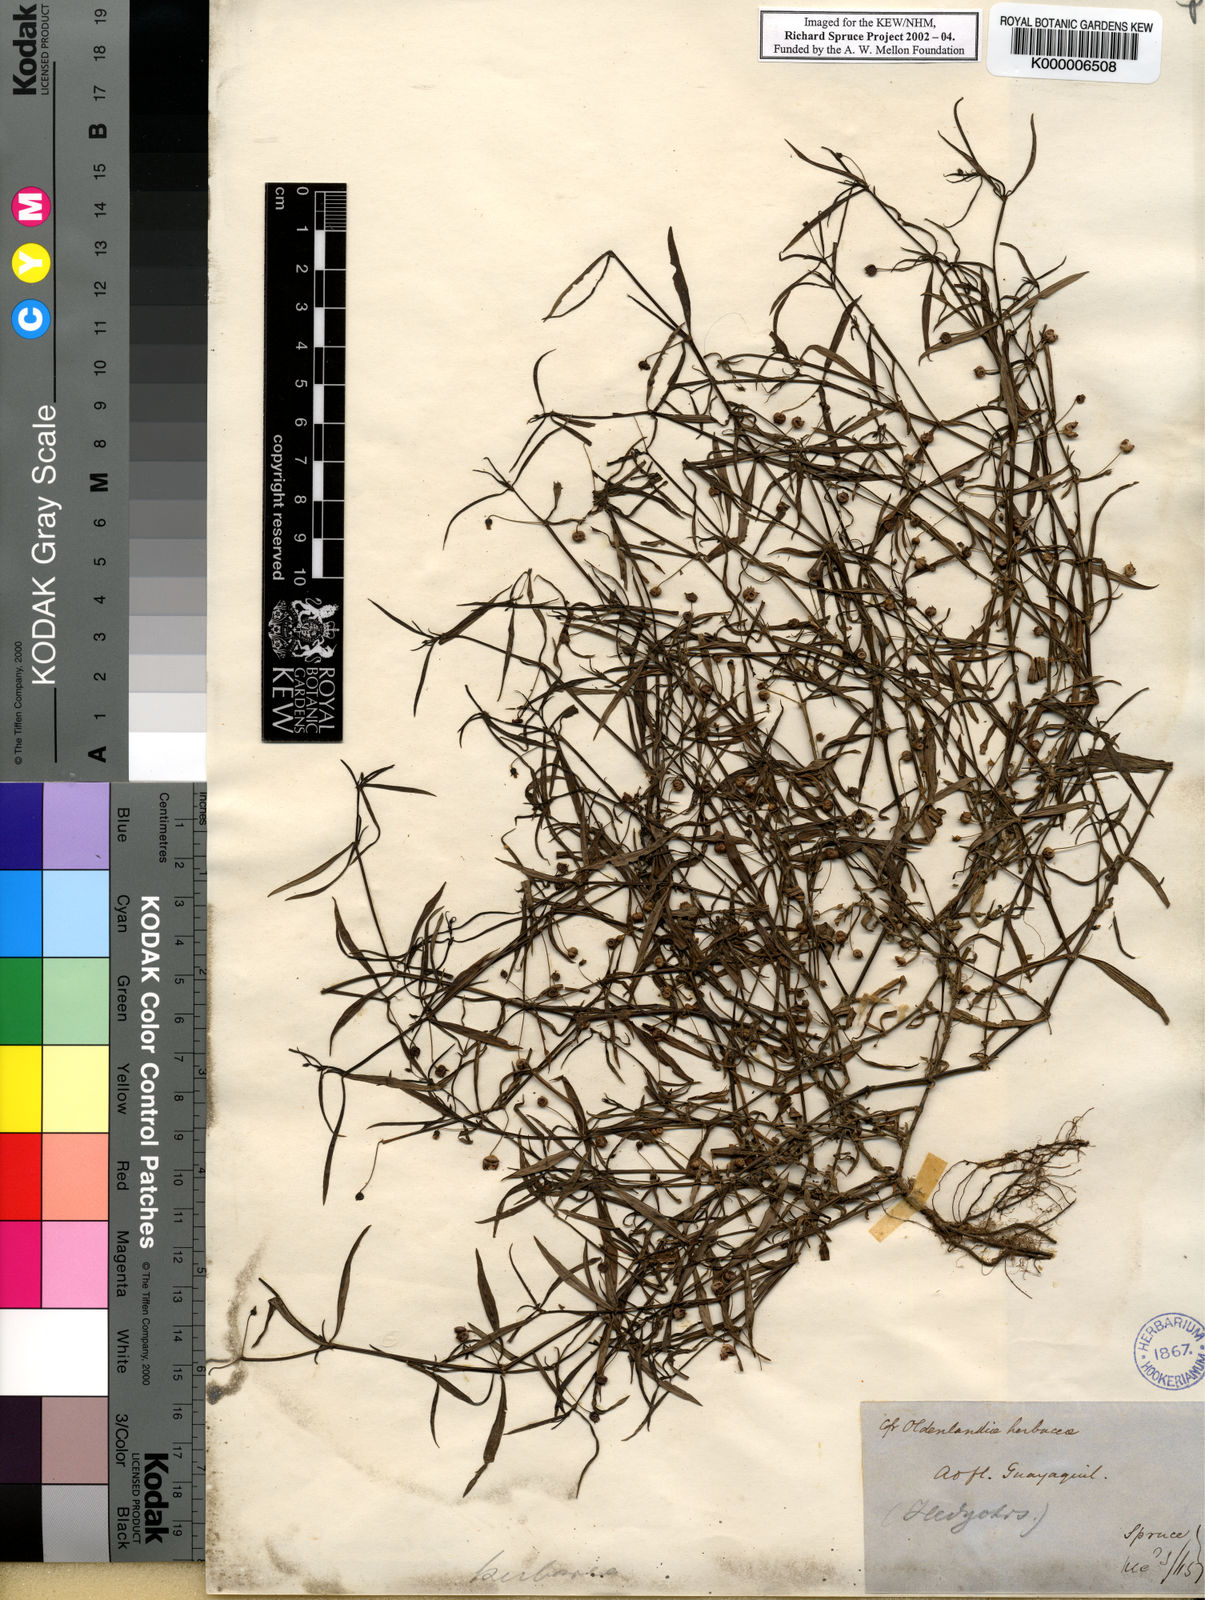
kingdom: Plantae
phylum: Tracheophyta
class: Magnoliopsida
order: Gentianales
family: Rubiaceae
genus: Oldenlandia
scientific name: Oldenlandia lancifolia
